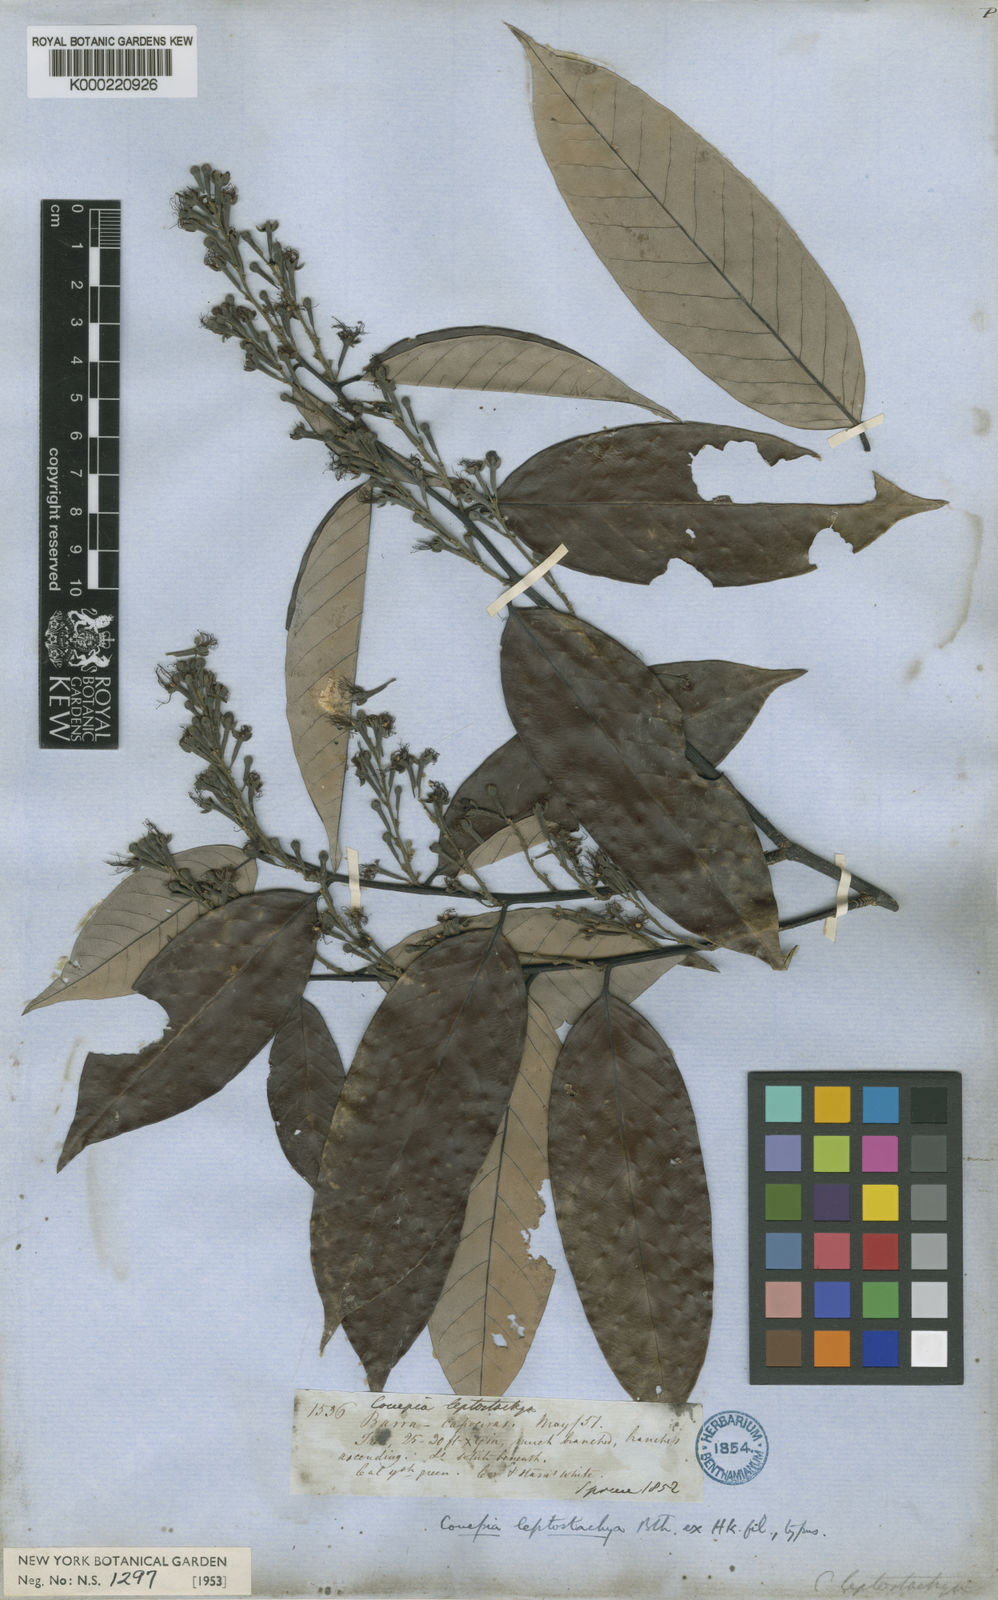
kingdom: Plantae
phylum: Tracheophyta
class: Magnoliopsida
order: Malpighiales
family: Chrysobalanaceae
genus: Couepia
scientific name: Couepia guianensis
